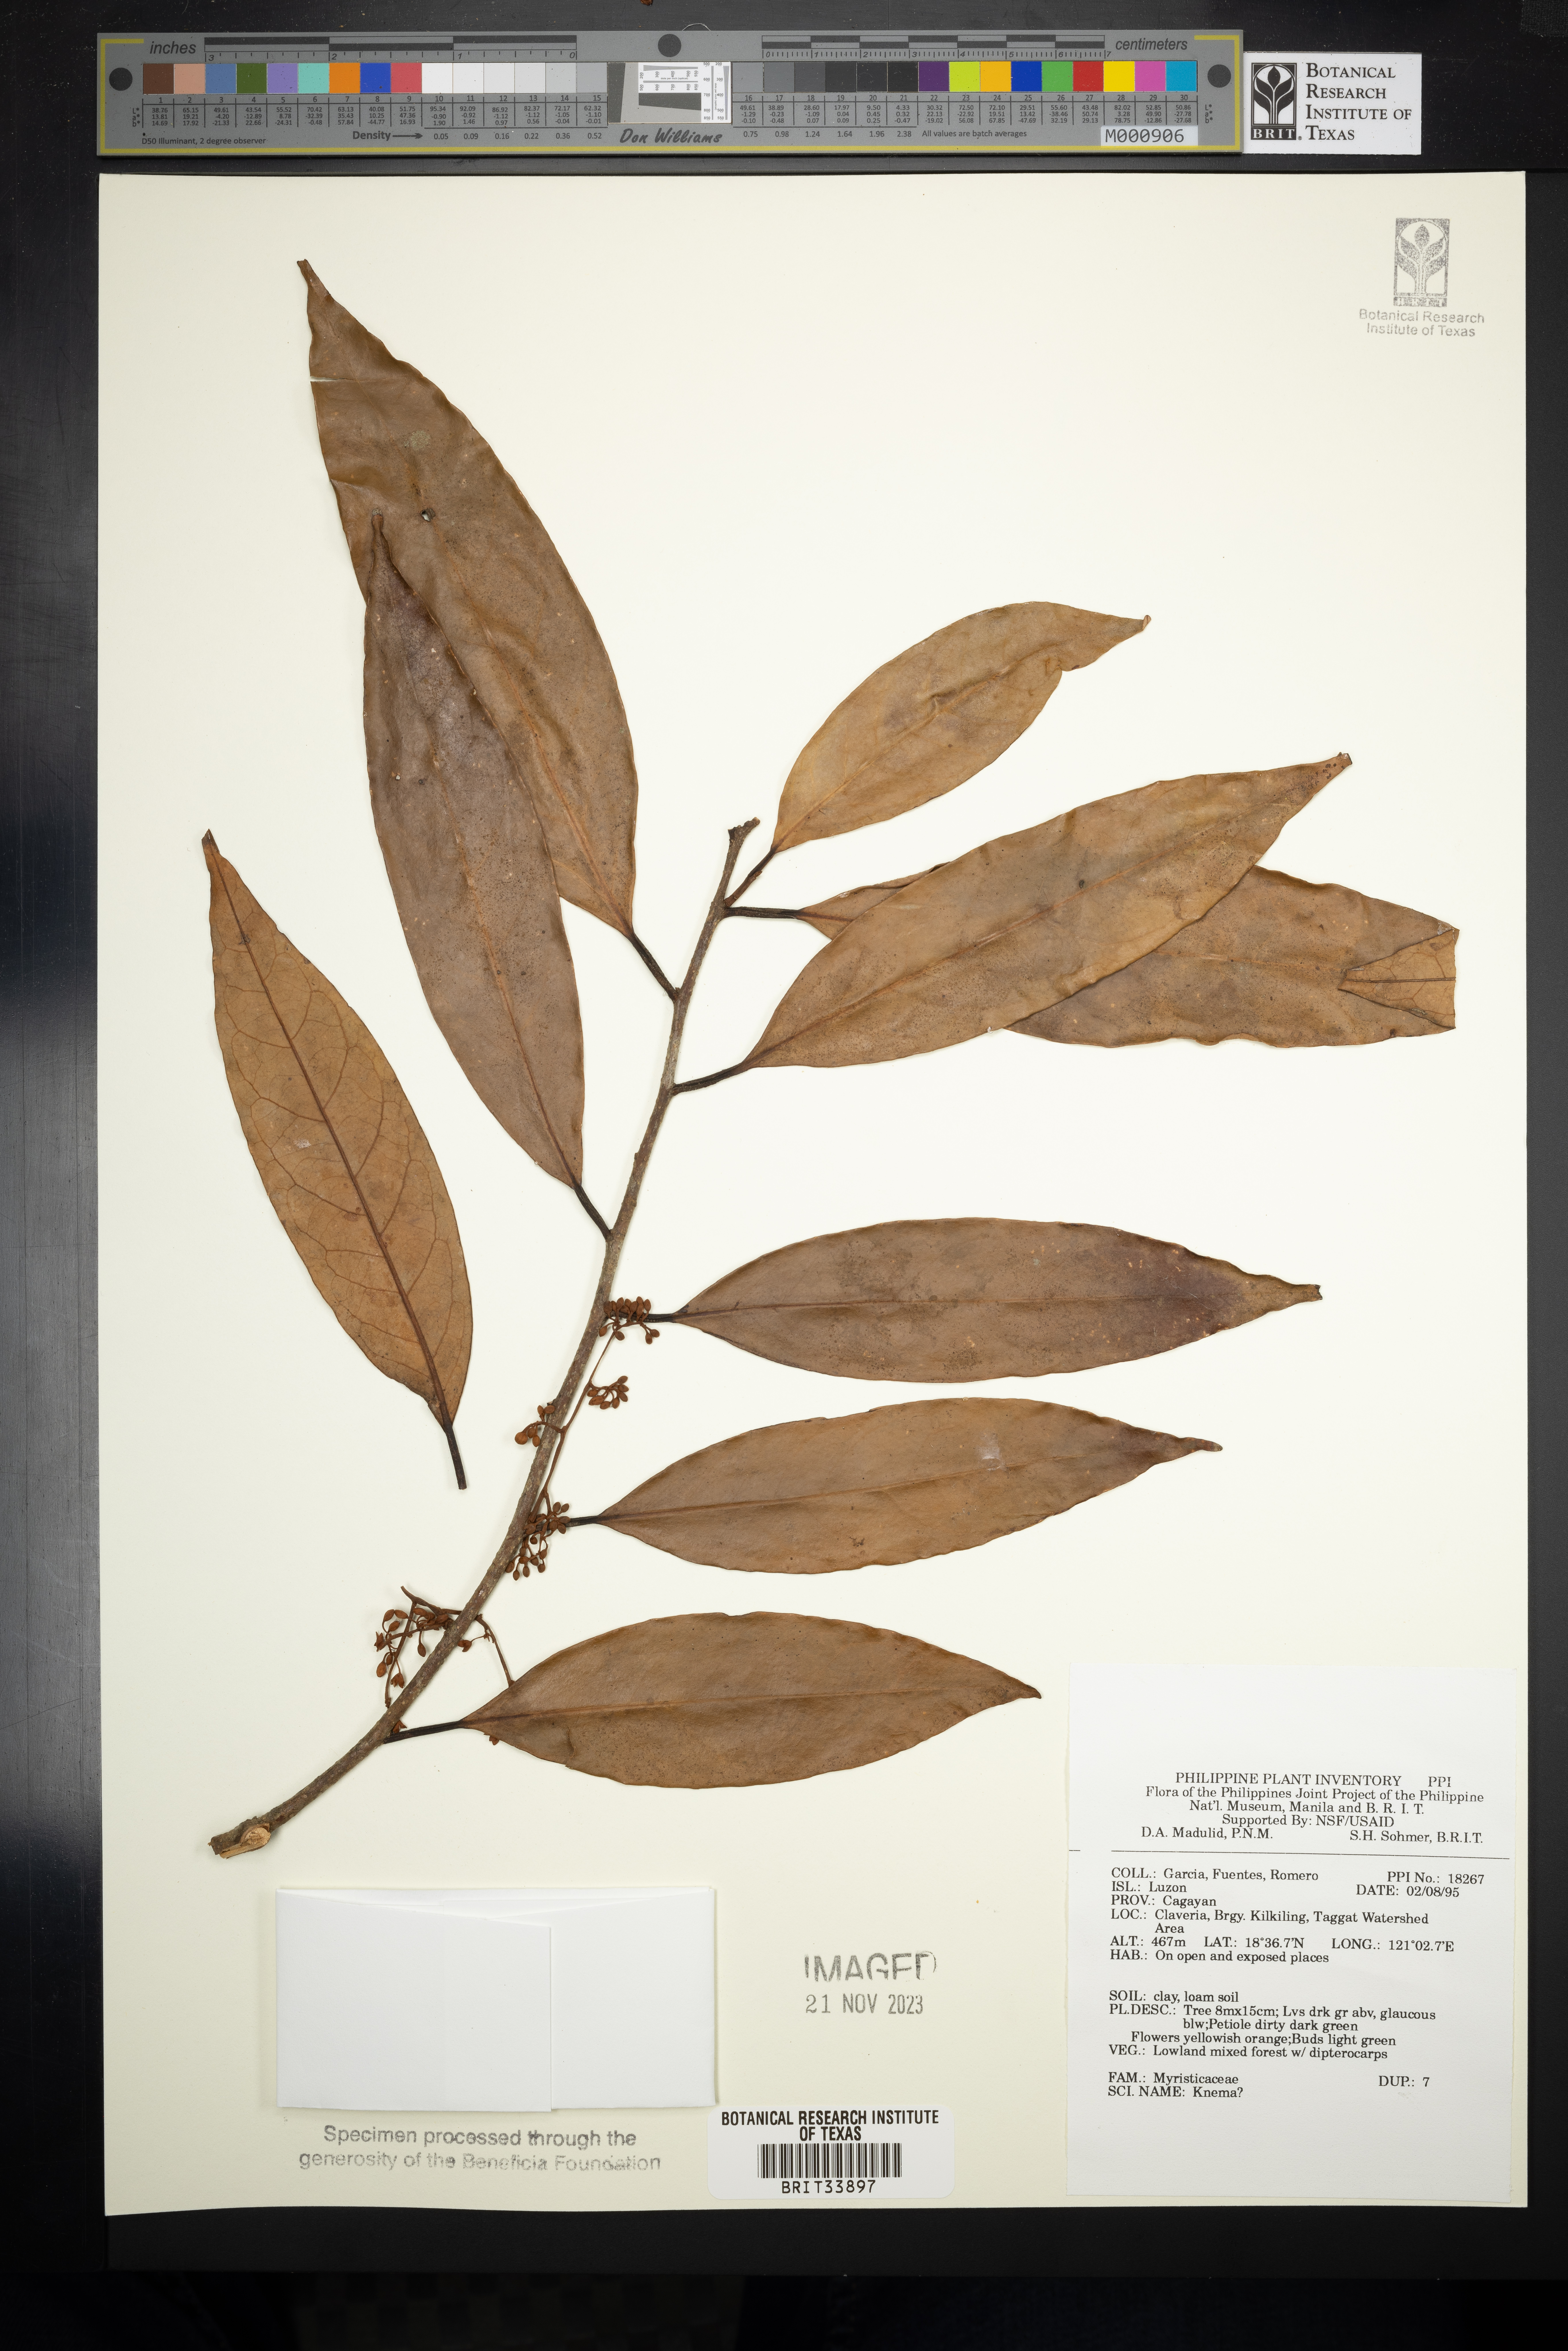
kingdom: Plantae
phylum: Tracheophyta
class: Magnoliopsida
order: Magnoliales
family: Myristicaceae
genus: Knema
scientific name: Knema
